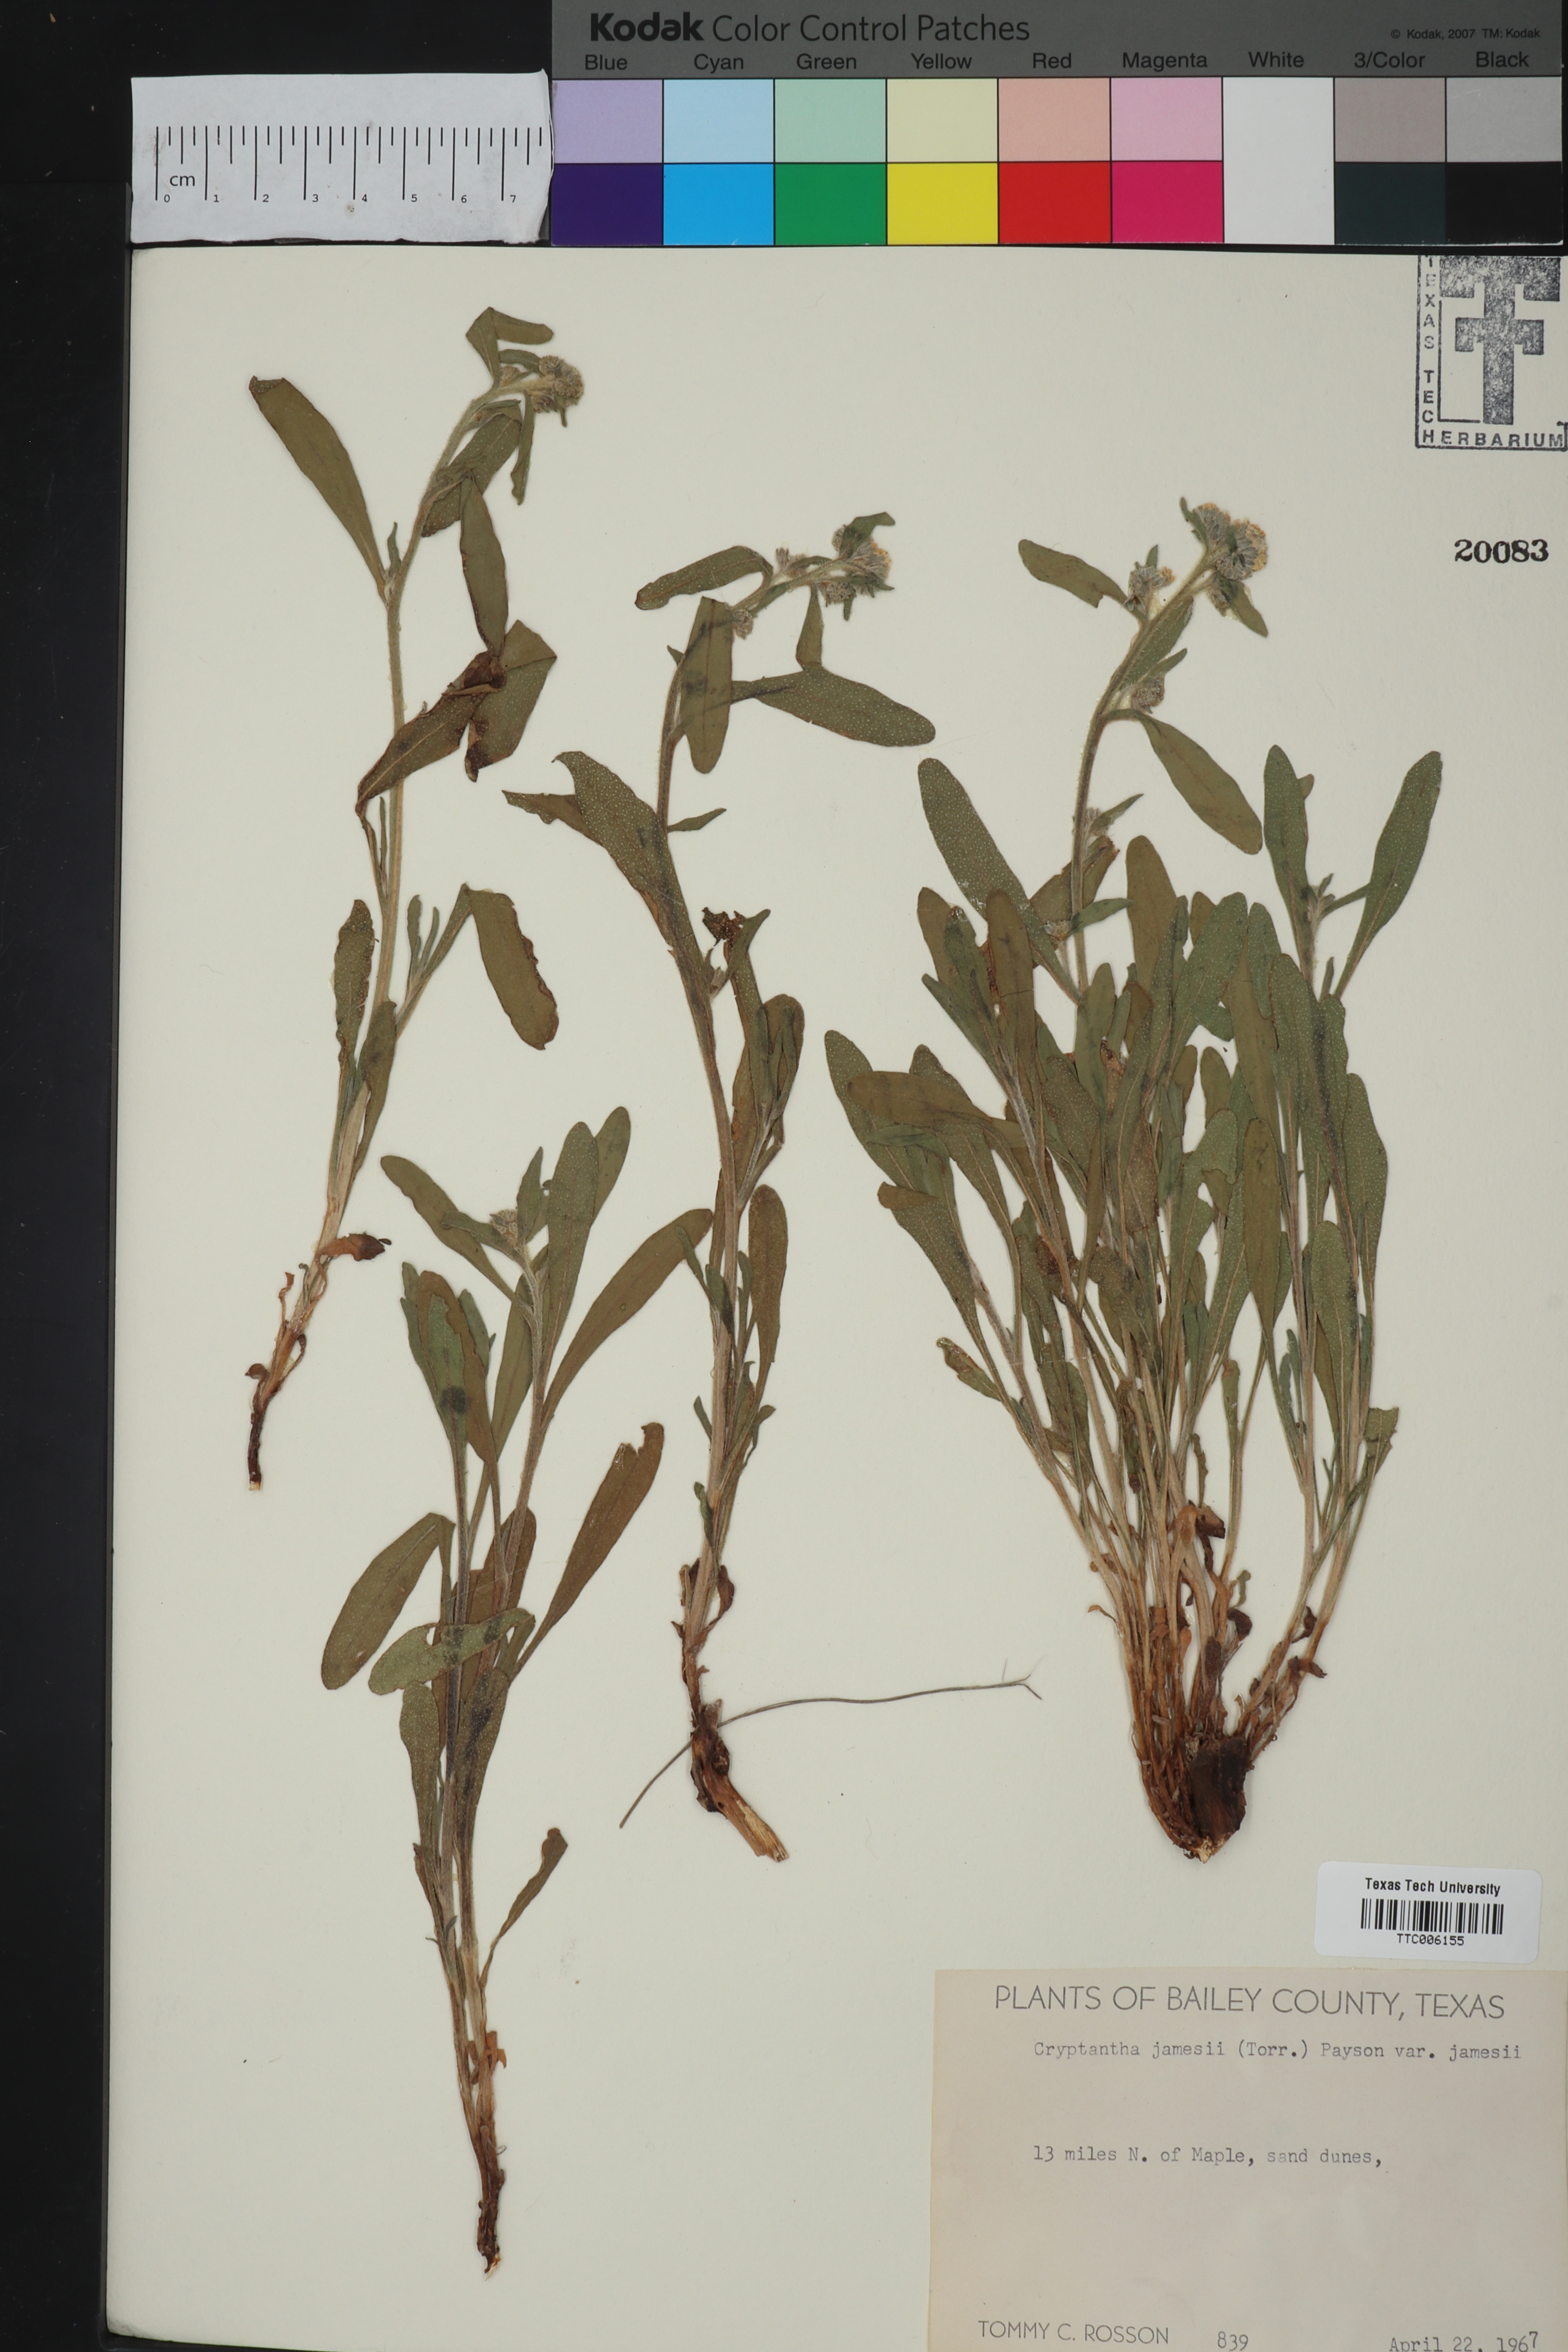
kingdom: Plantae
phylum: Tracheophyta
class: Magnoliopsida
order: Boraginales
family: Boraginaceae
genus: Oreocarya
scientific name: Oreocarya suffruticosa
